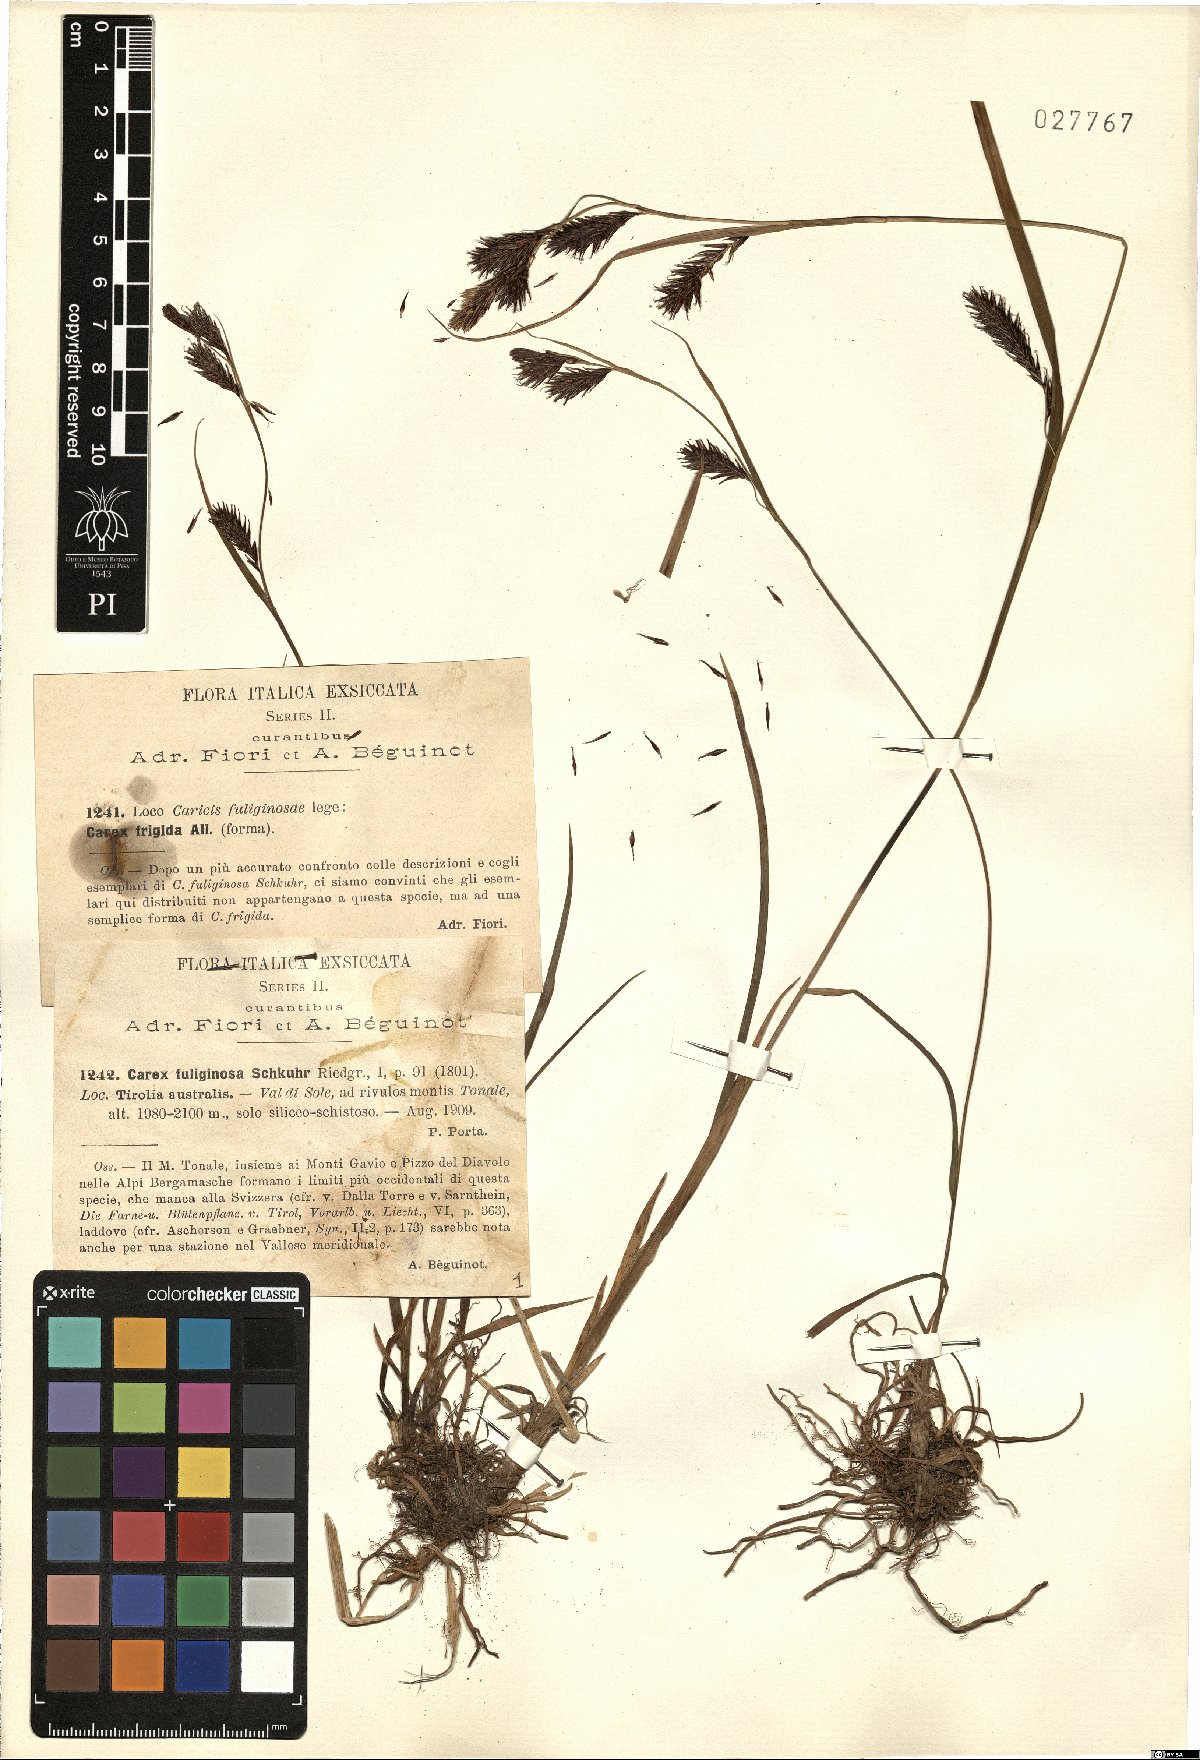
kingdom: Plantae
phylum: Tracheophyta
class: Liliopsida
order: Poales
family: Cyperaceae
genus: Carex
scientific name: Carex frigida
